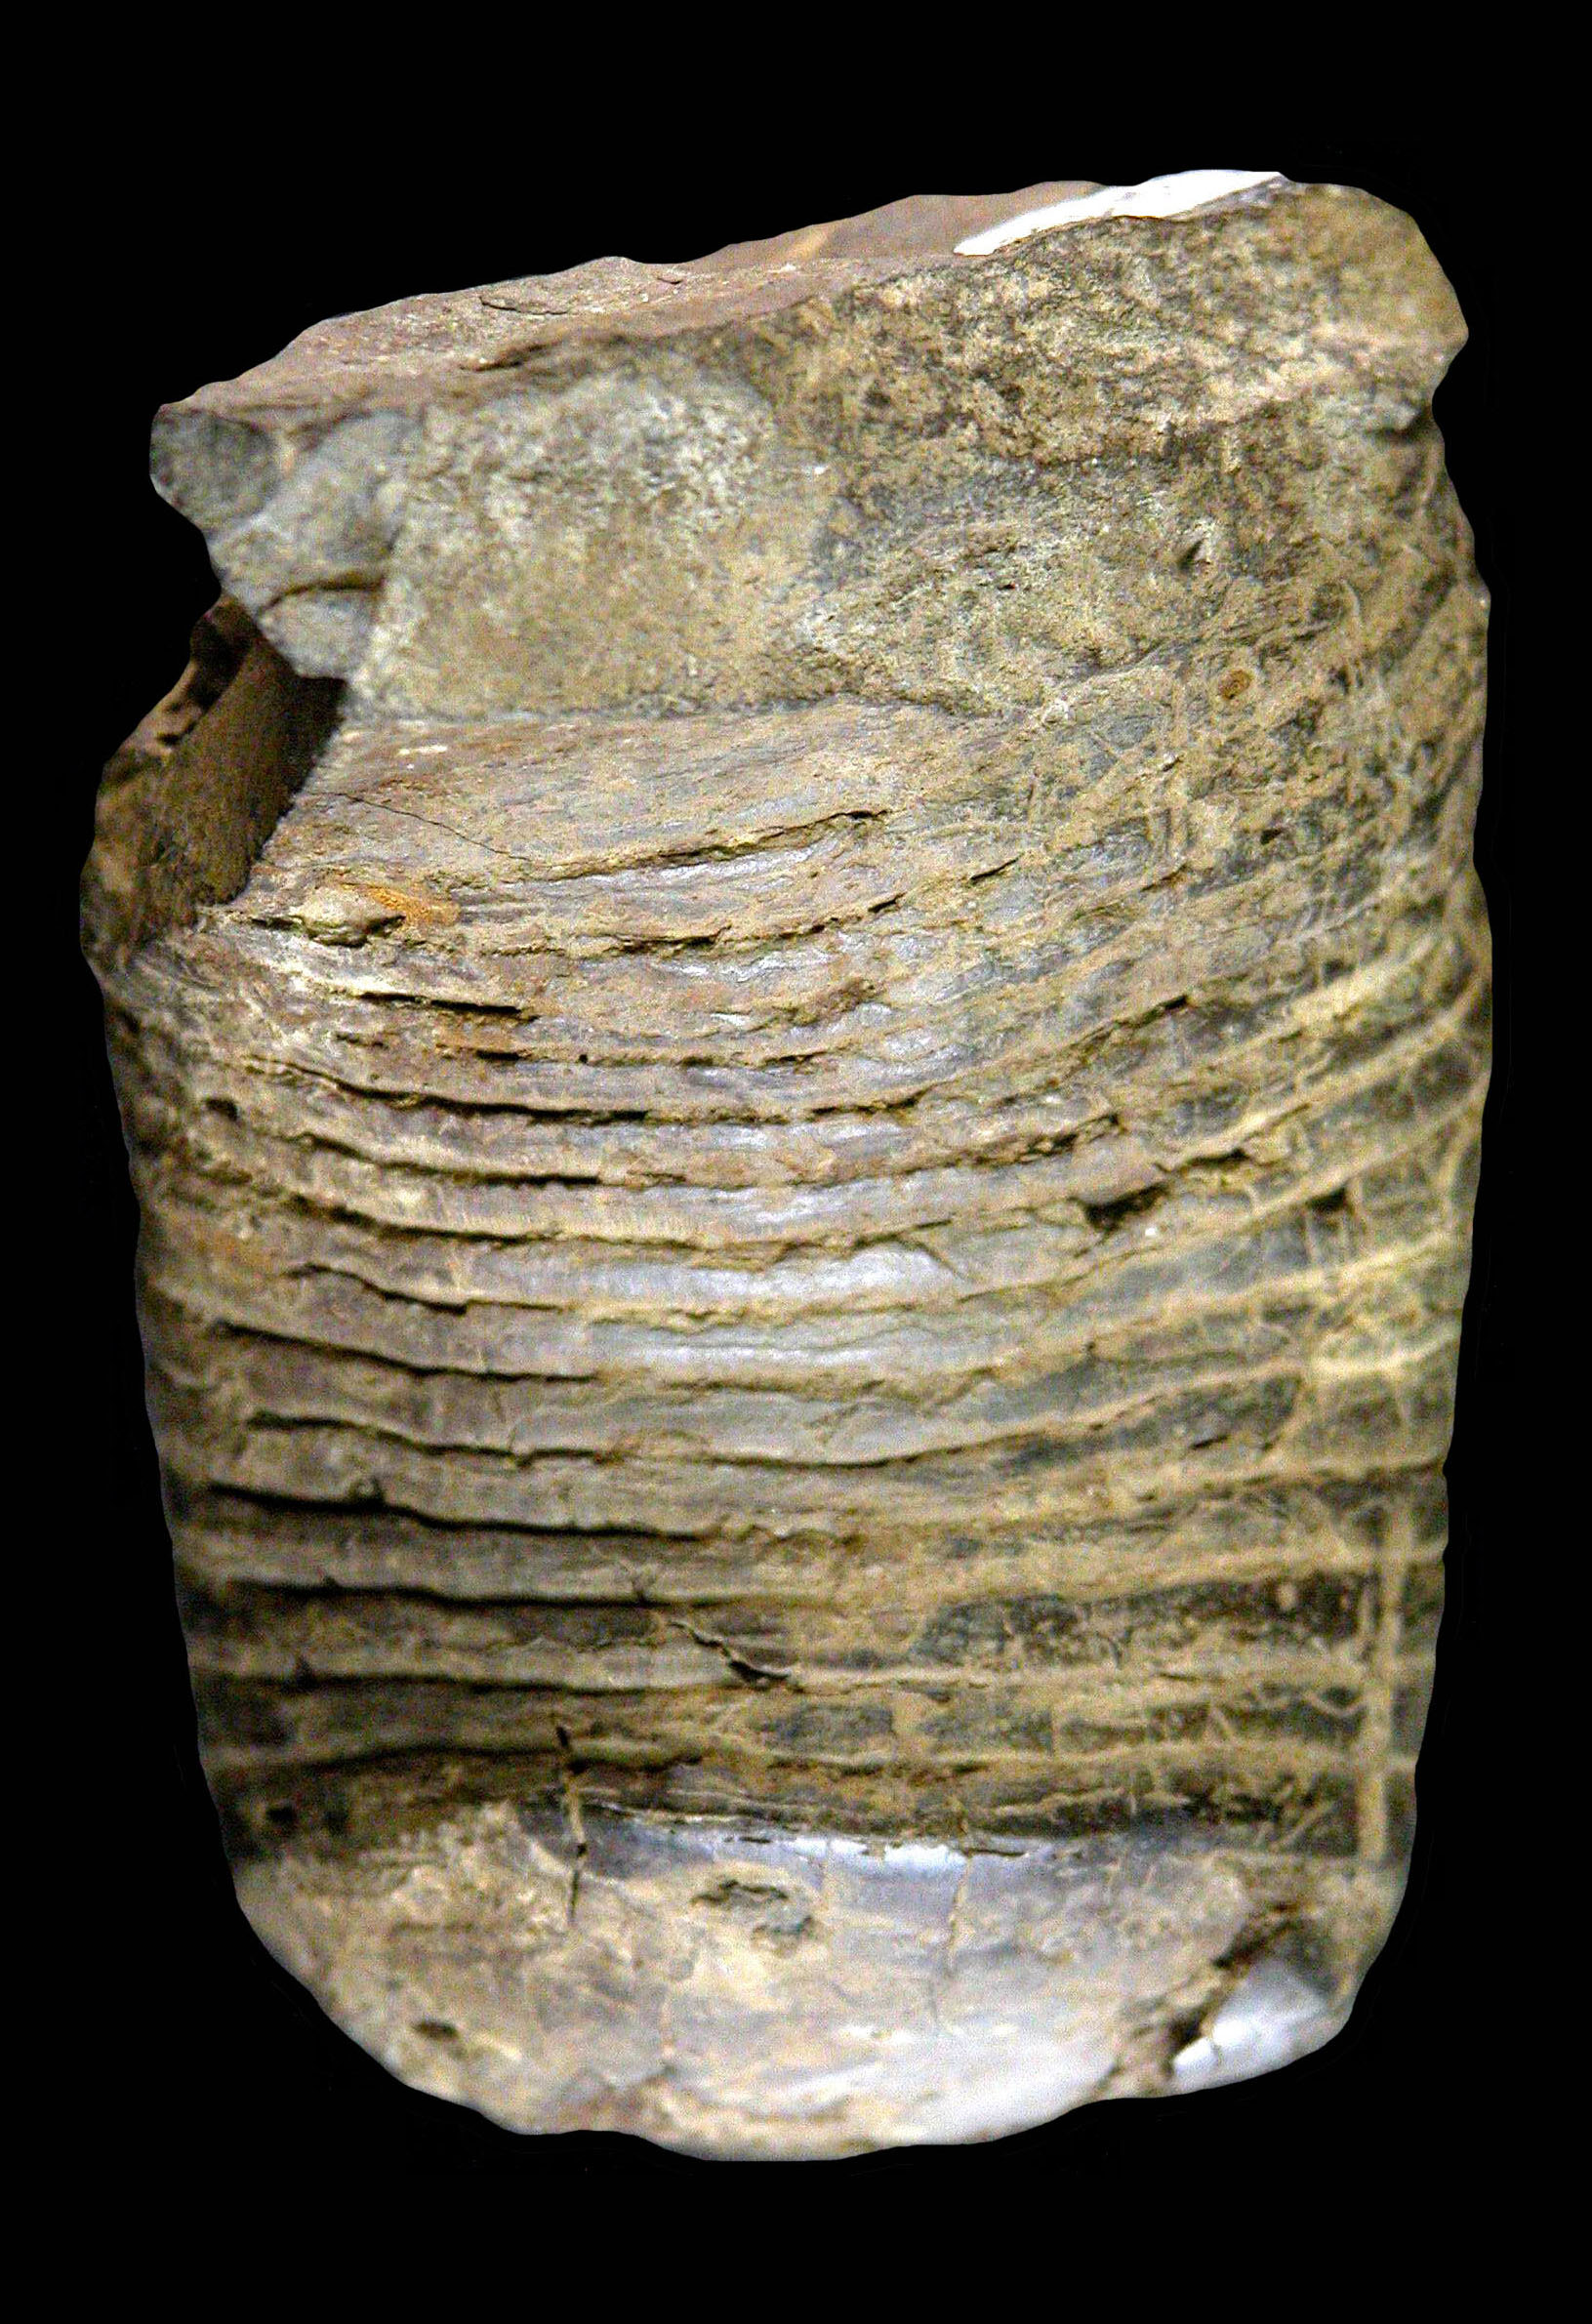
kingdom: Animalia
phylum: Mollusca
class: Cephalopoda
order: Nautilida
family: Nautilidae
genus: Cyrtoceras
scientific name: Cyrtoceras
